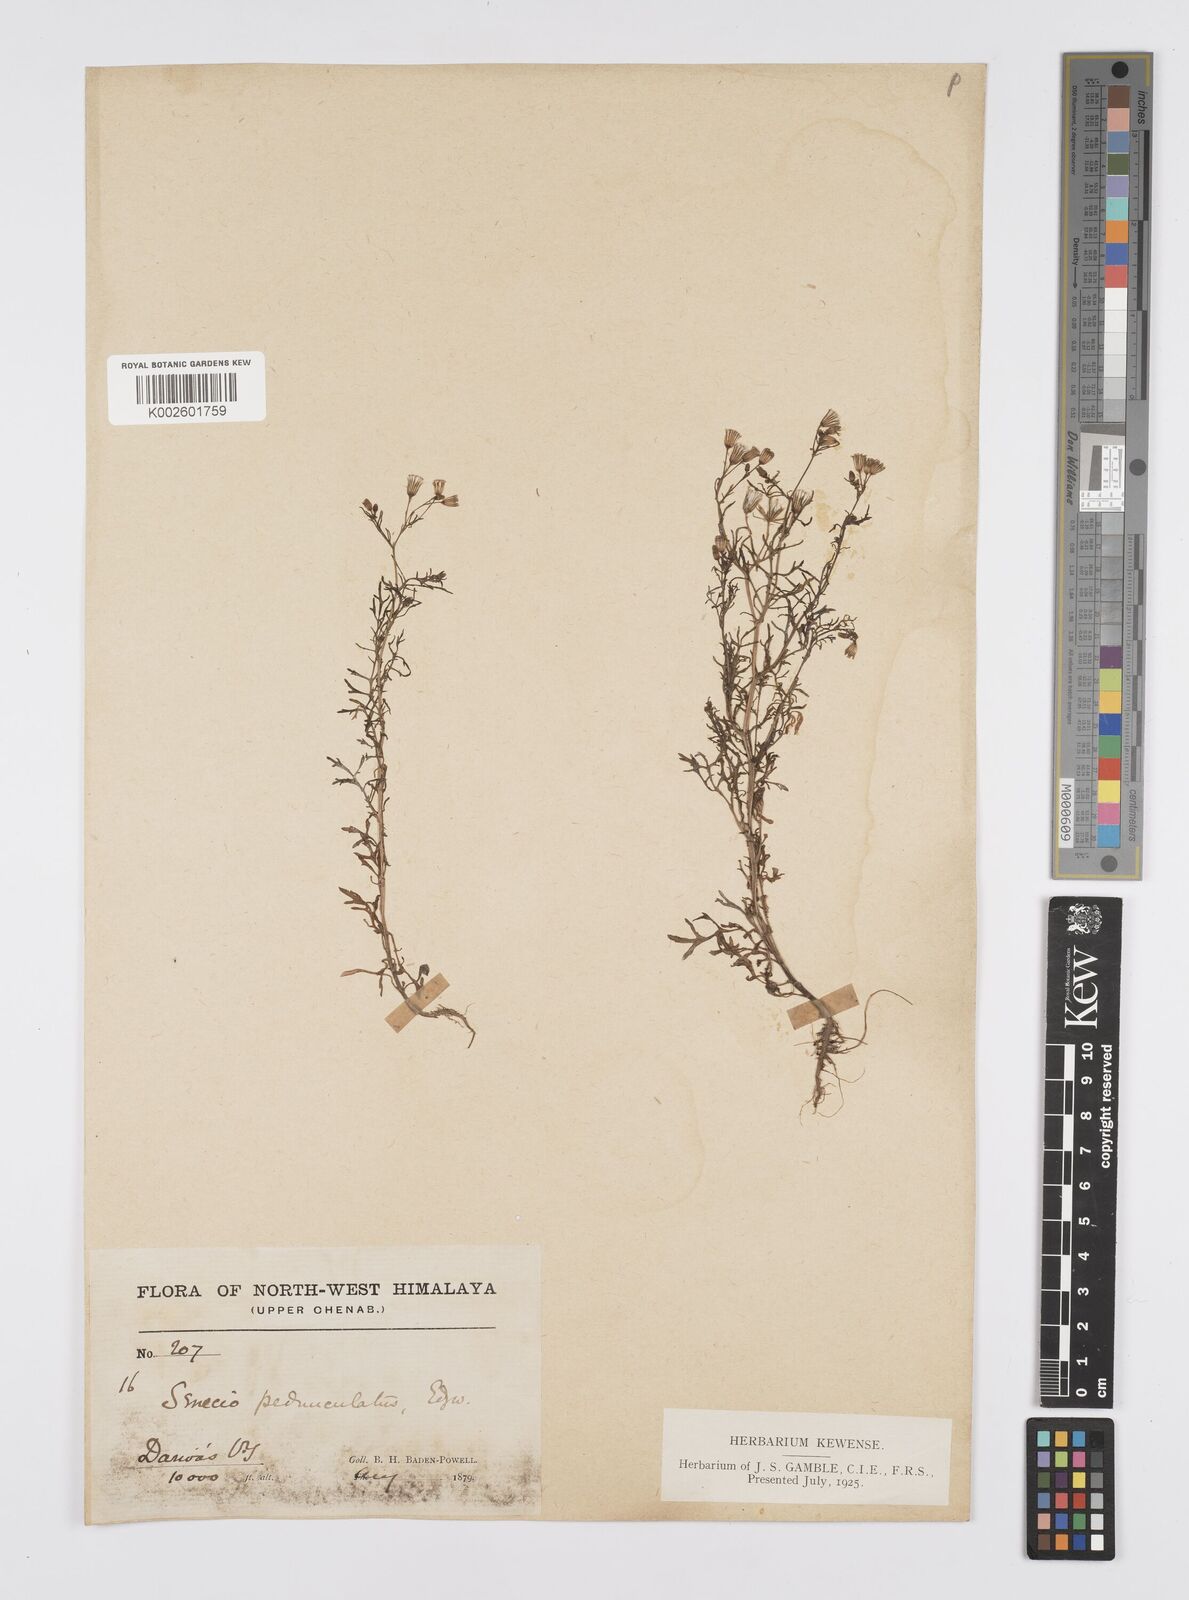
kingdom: Plantae
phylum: Tracheophyta
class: Magnoliopsida
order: Asterales
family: Asteraceae
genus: Senecio
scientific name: Senecio krascheninnikovii
